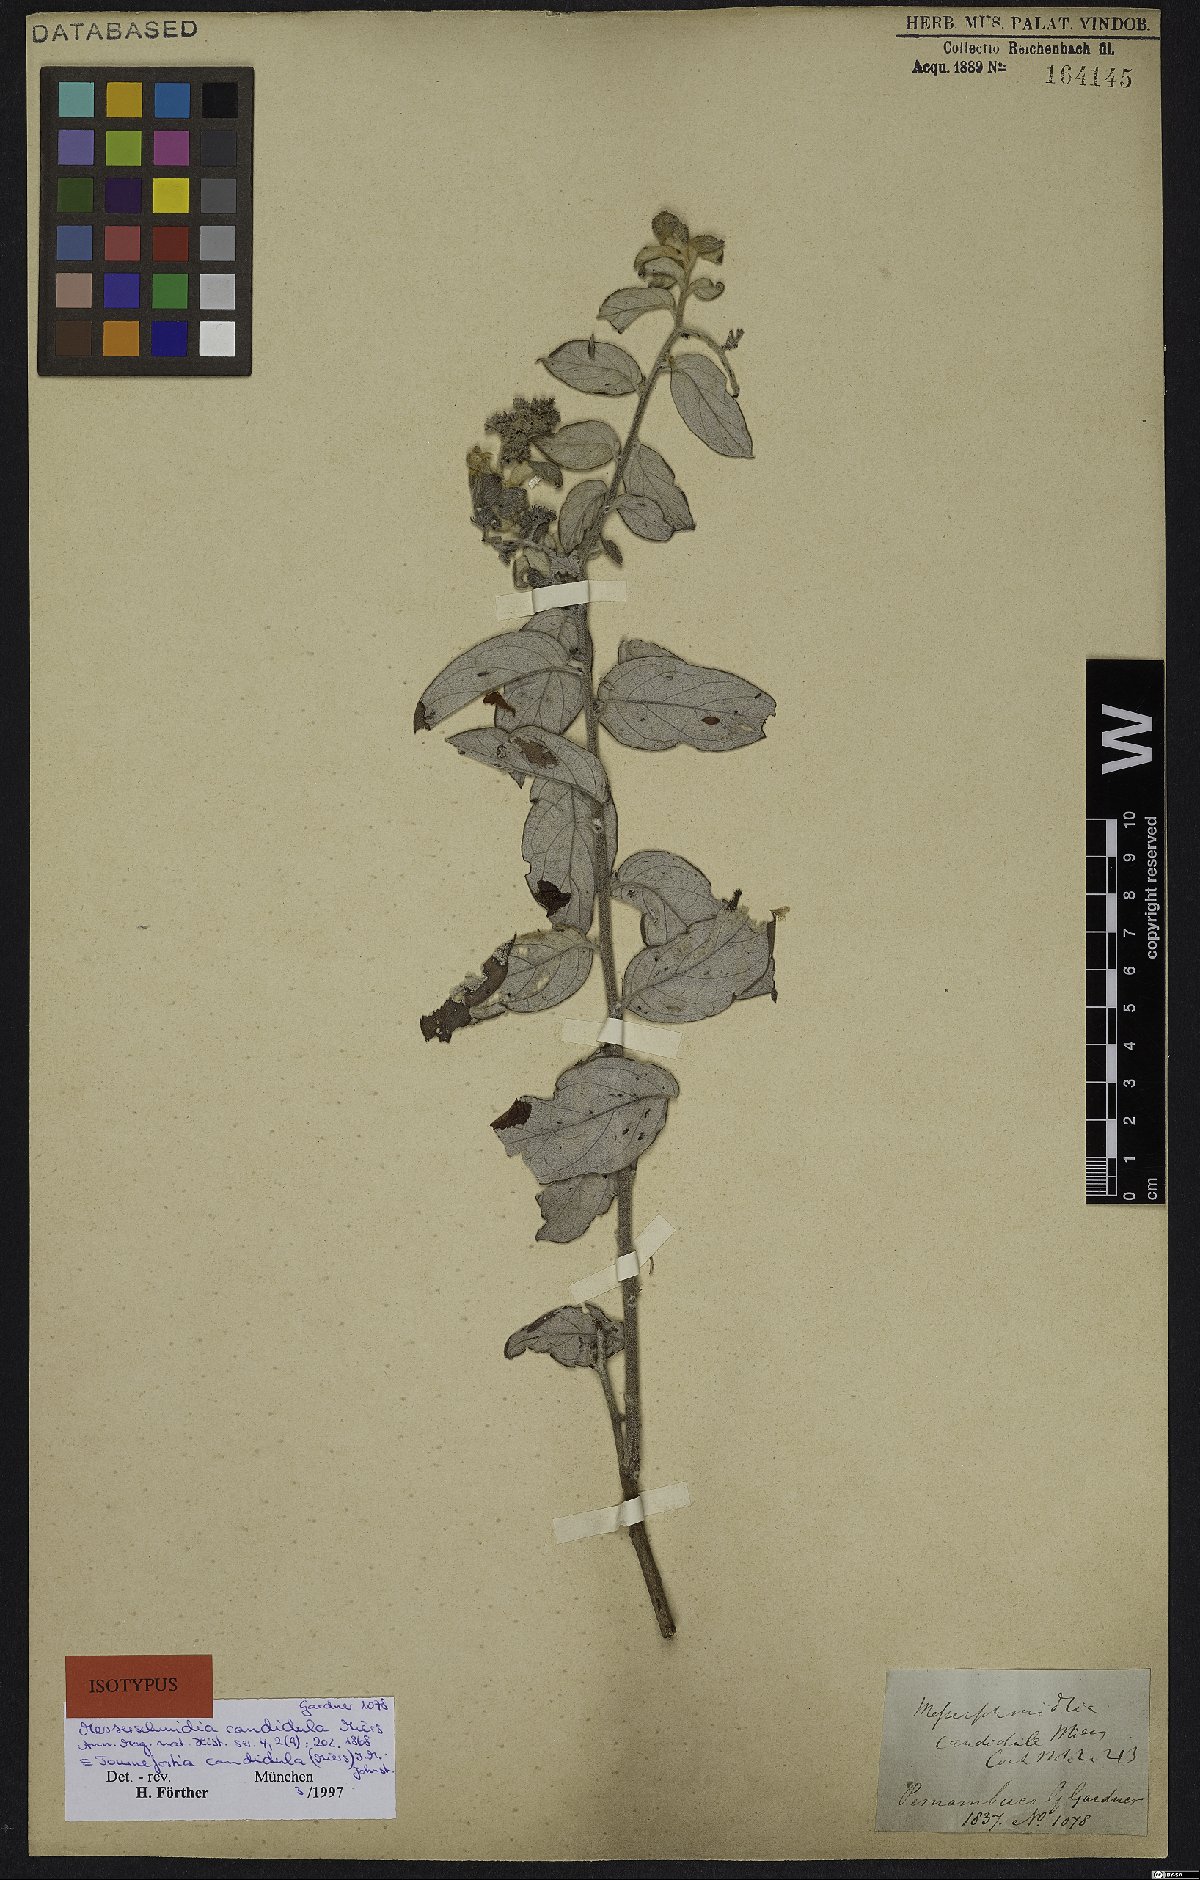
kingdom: Plantae
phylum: Tracheophyta
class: Magnoliopsida
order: Boraginales
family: Heliotropiaceae
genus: Myriopus
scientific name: Myriopus candidulus
